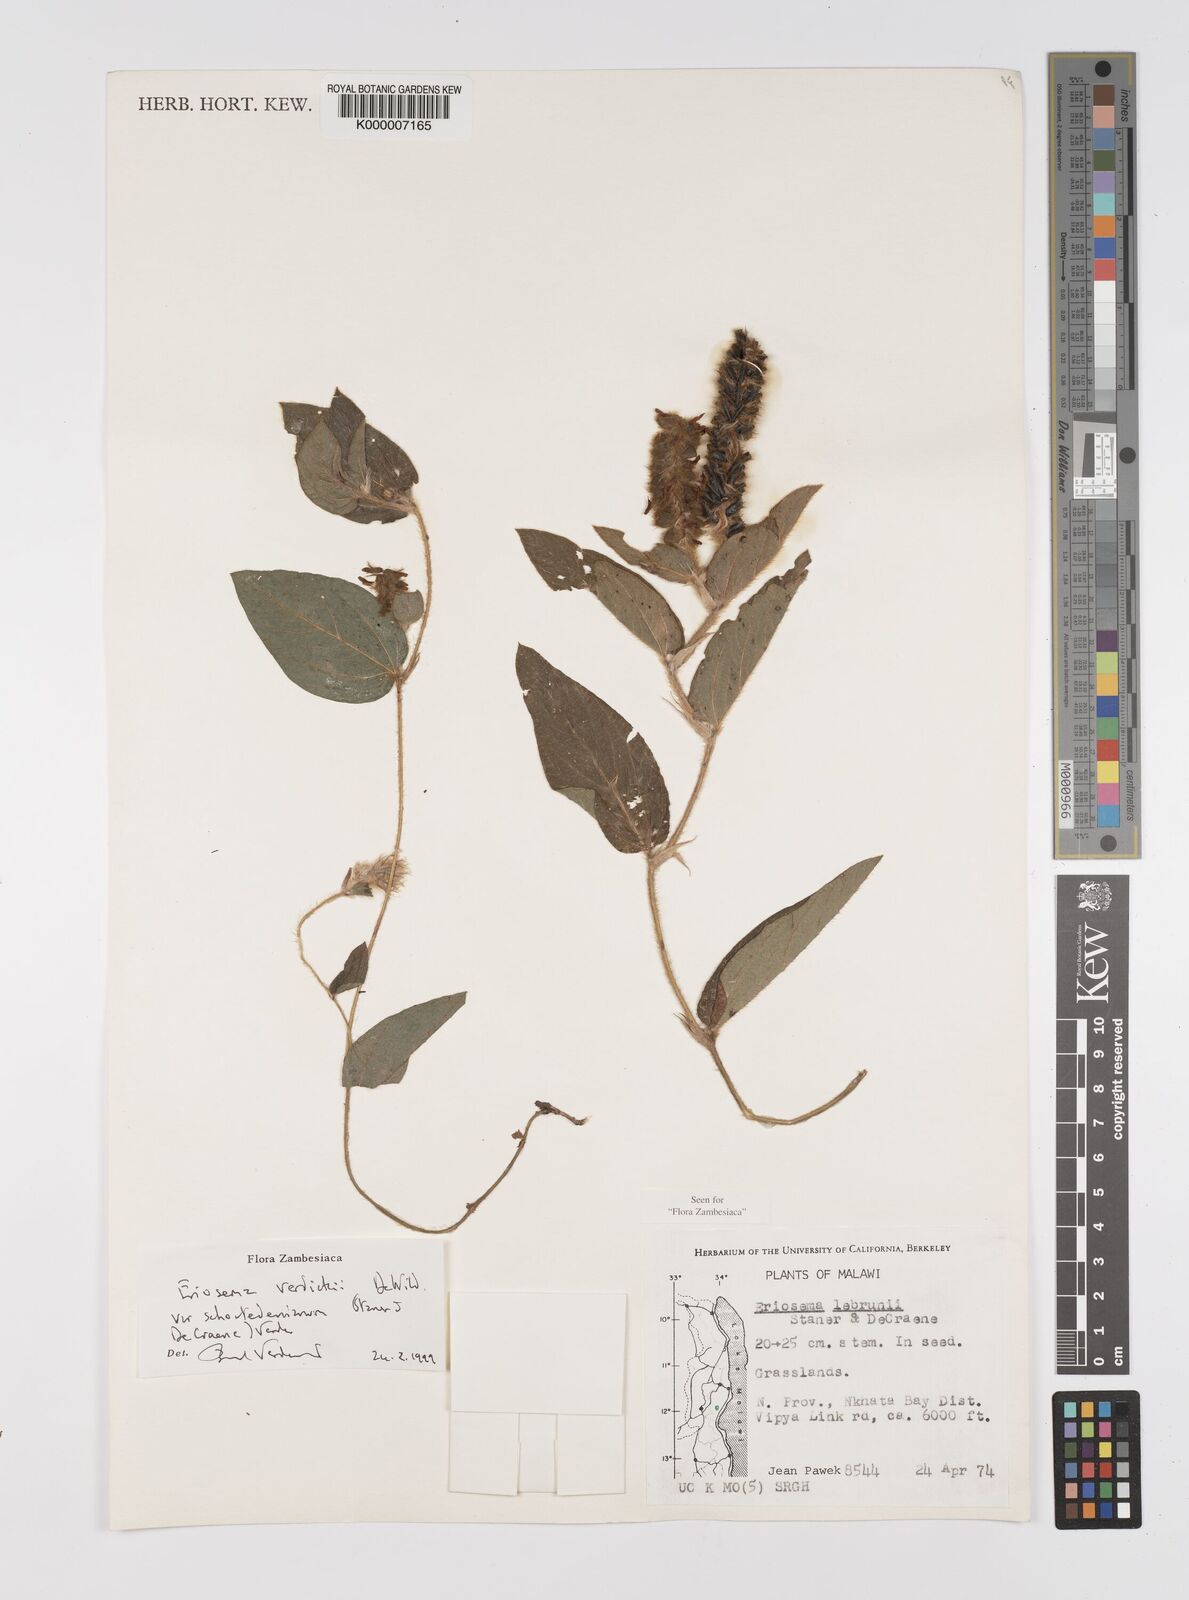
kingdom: Plantae
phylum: Tracheophyta
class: Magnoliopsida
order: Fabales
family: Fabaceae
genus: Eriosema
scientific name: Eriosema verdickii
